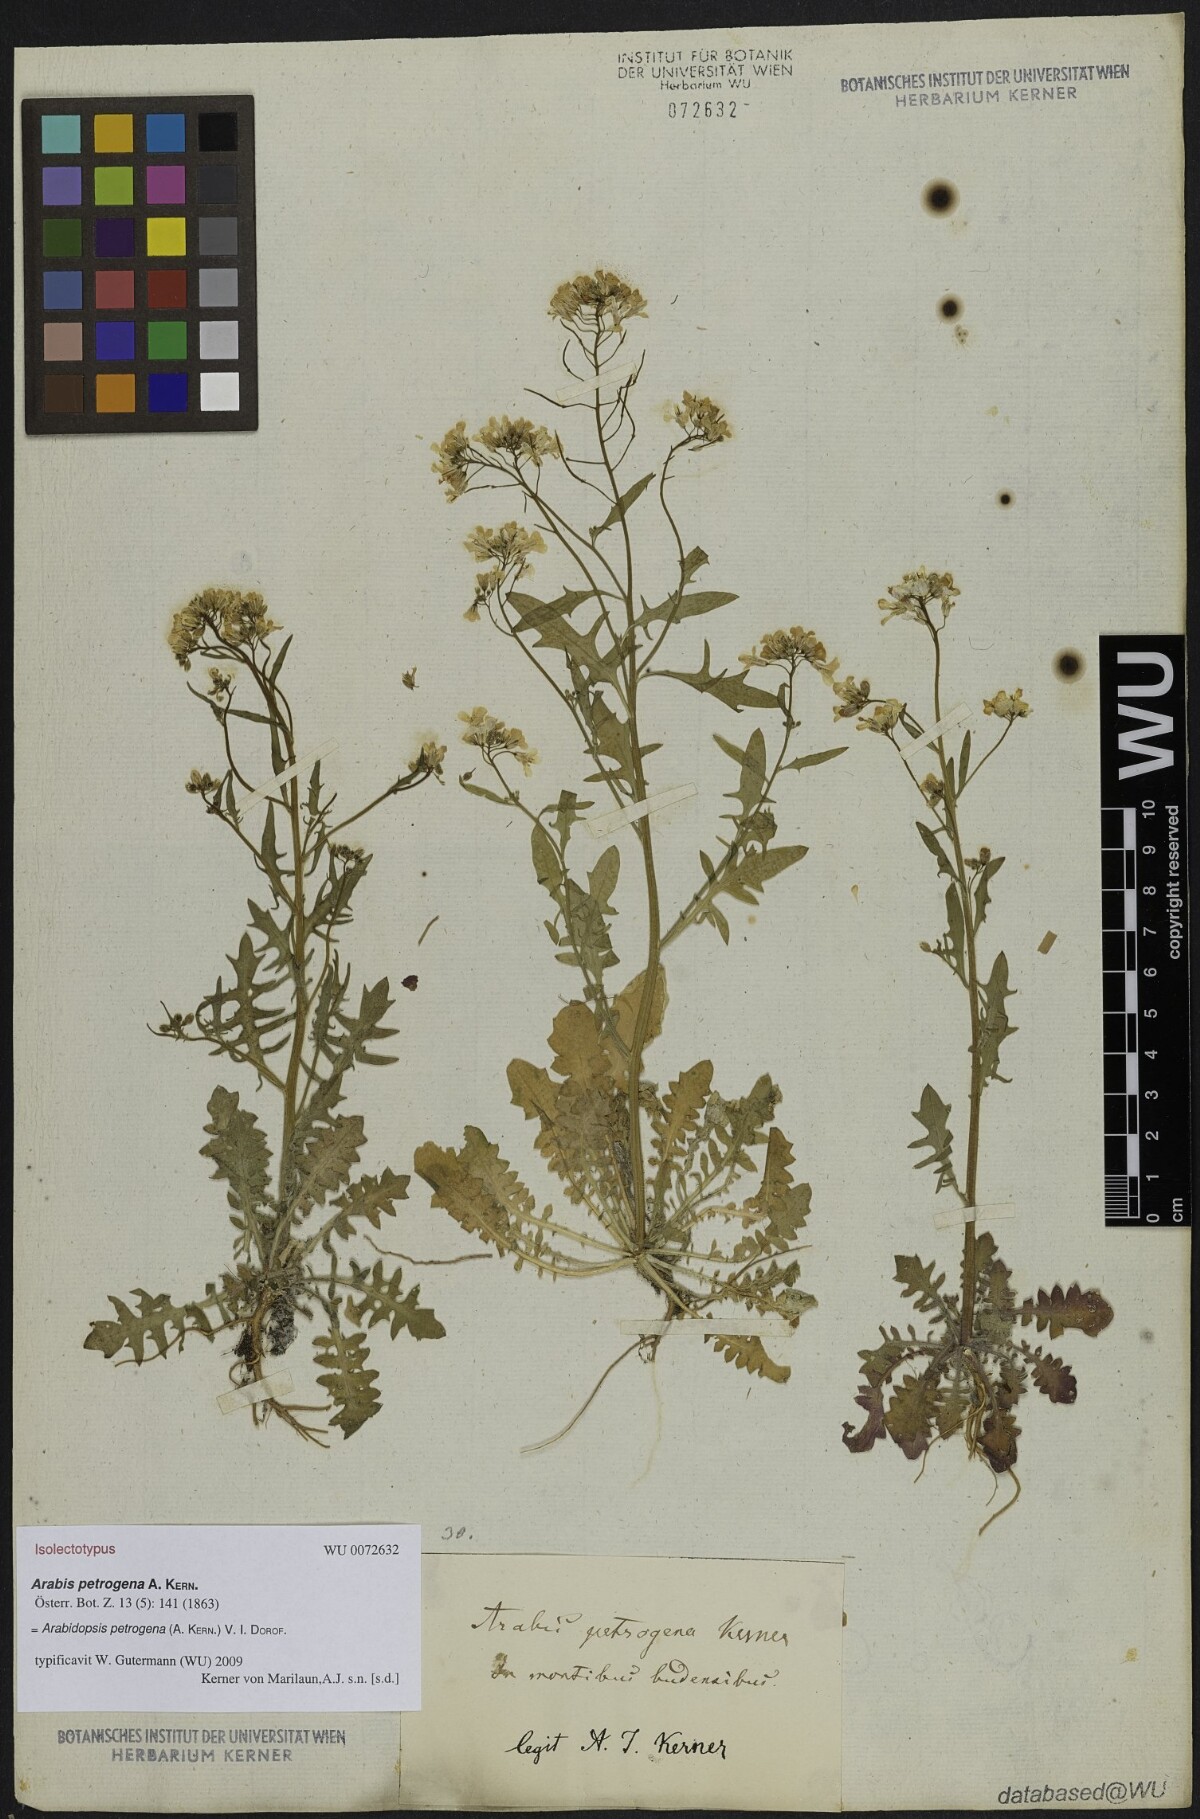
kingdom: Plantae
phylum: Tracheophyta
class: Magnoliopsida
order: Brassicales
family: Brassicaceae
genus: Arabidopsis
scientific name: Arabidopsis petrogena
